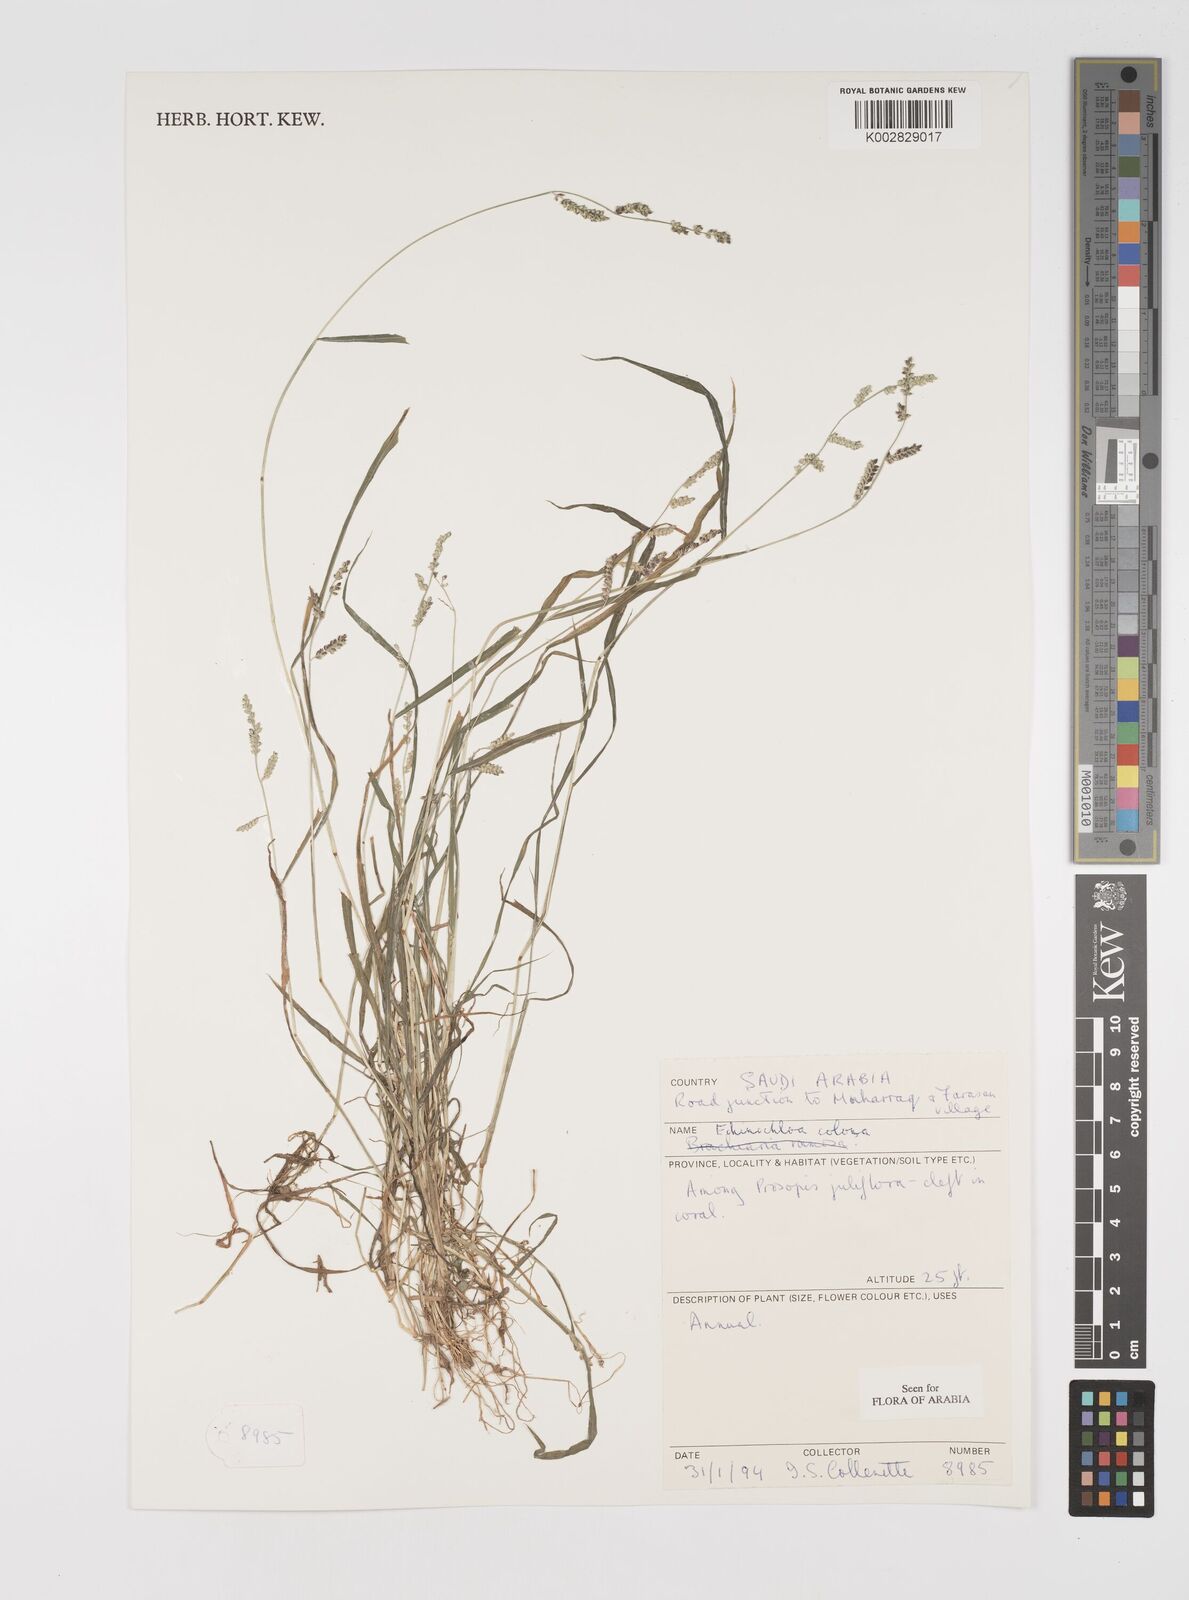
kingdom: Plantae
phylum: Tracheophyta
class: Liliopsida
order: Poales
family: Poaceae
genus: Echinochloa
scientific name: Echinochloa colonum
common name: Jungle rice
